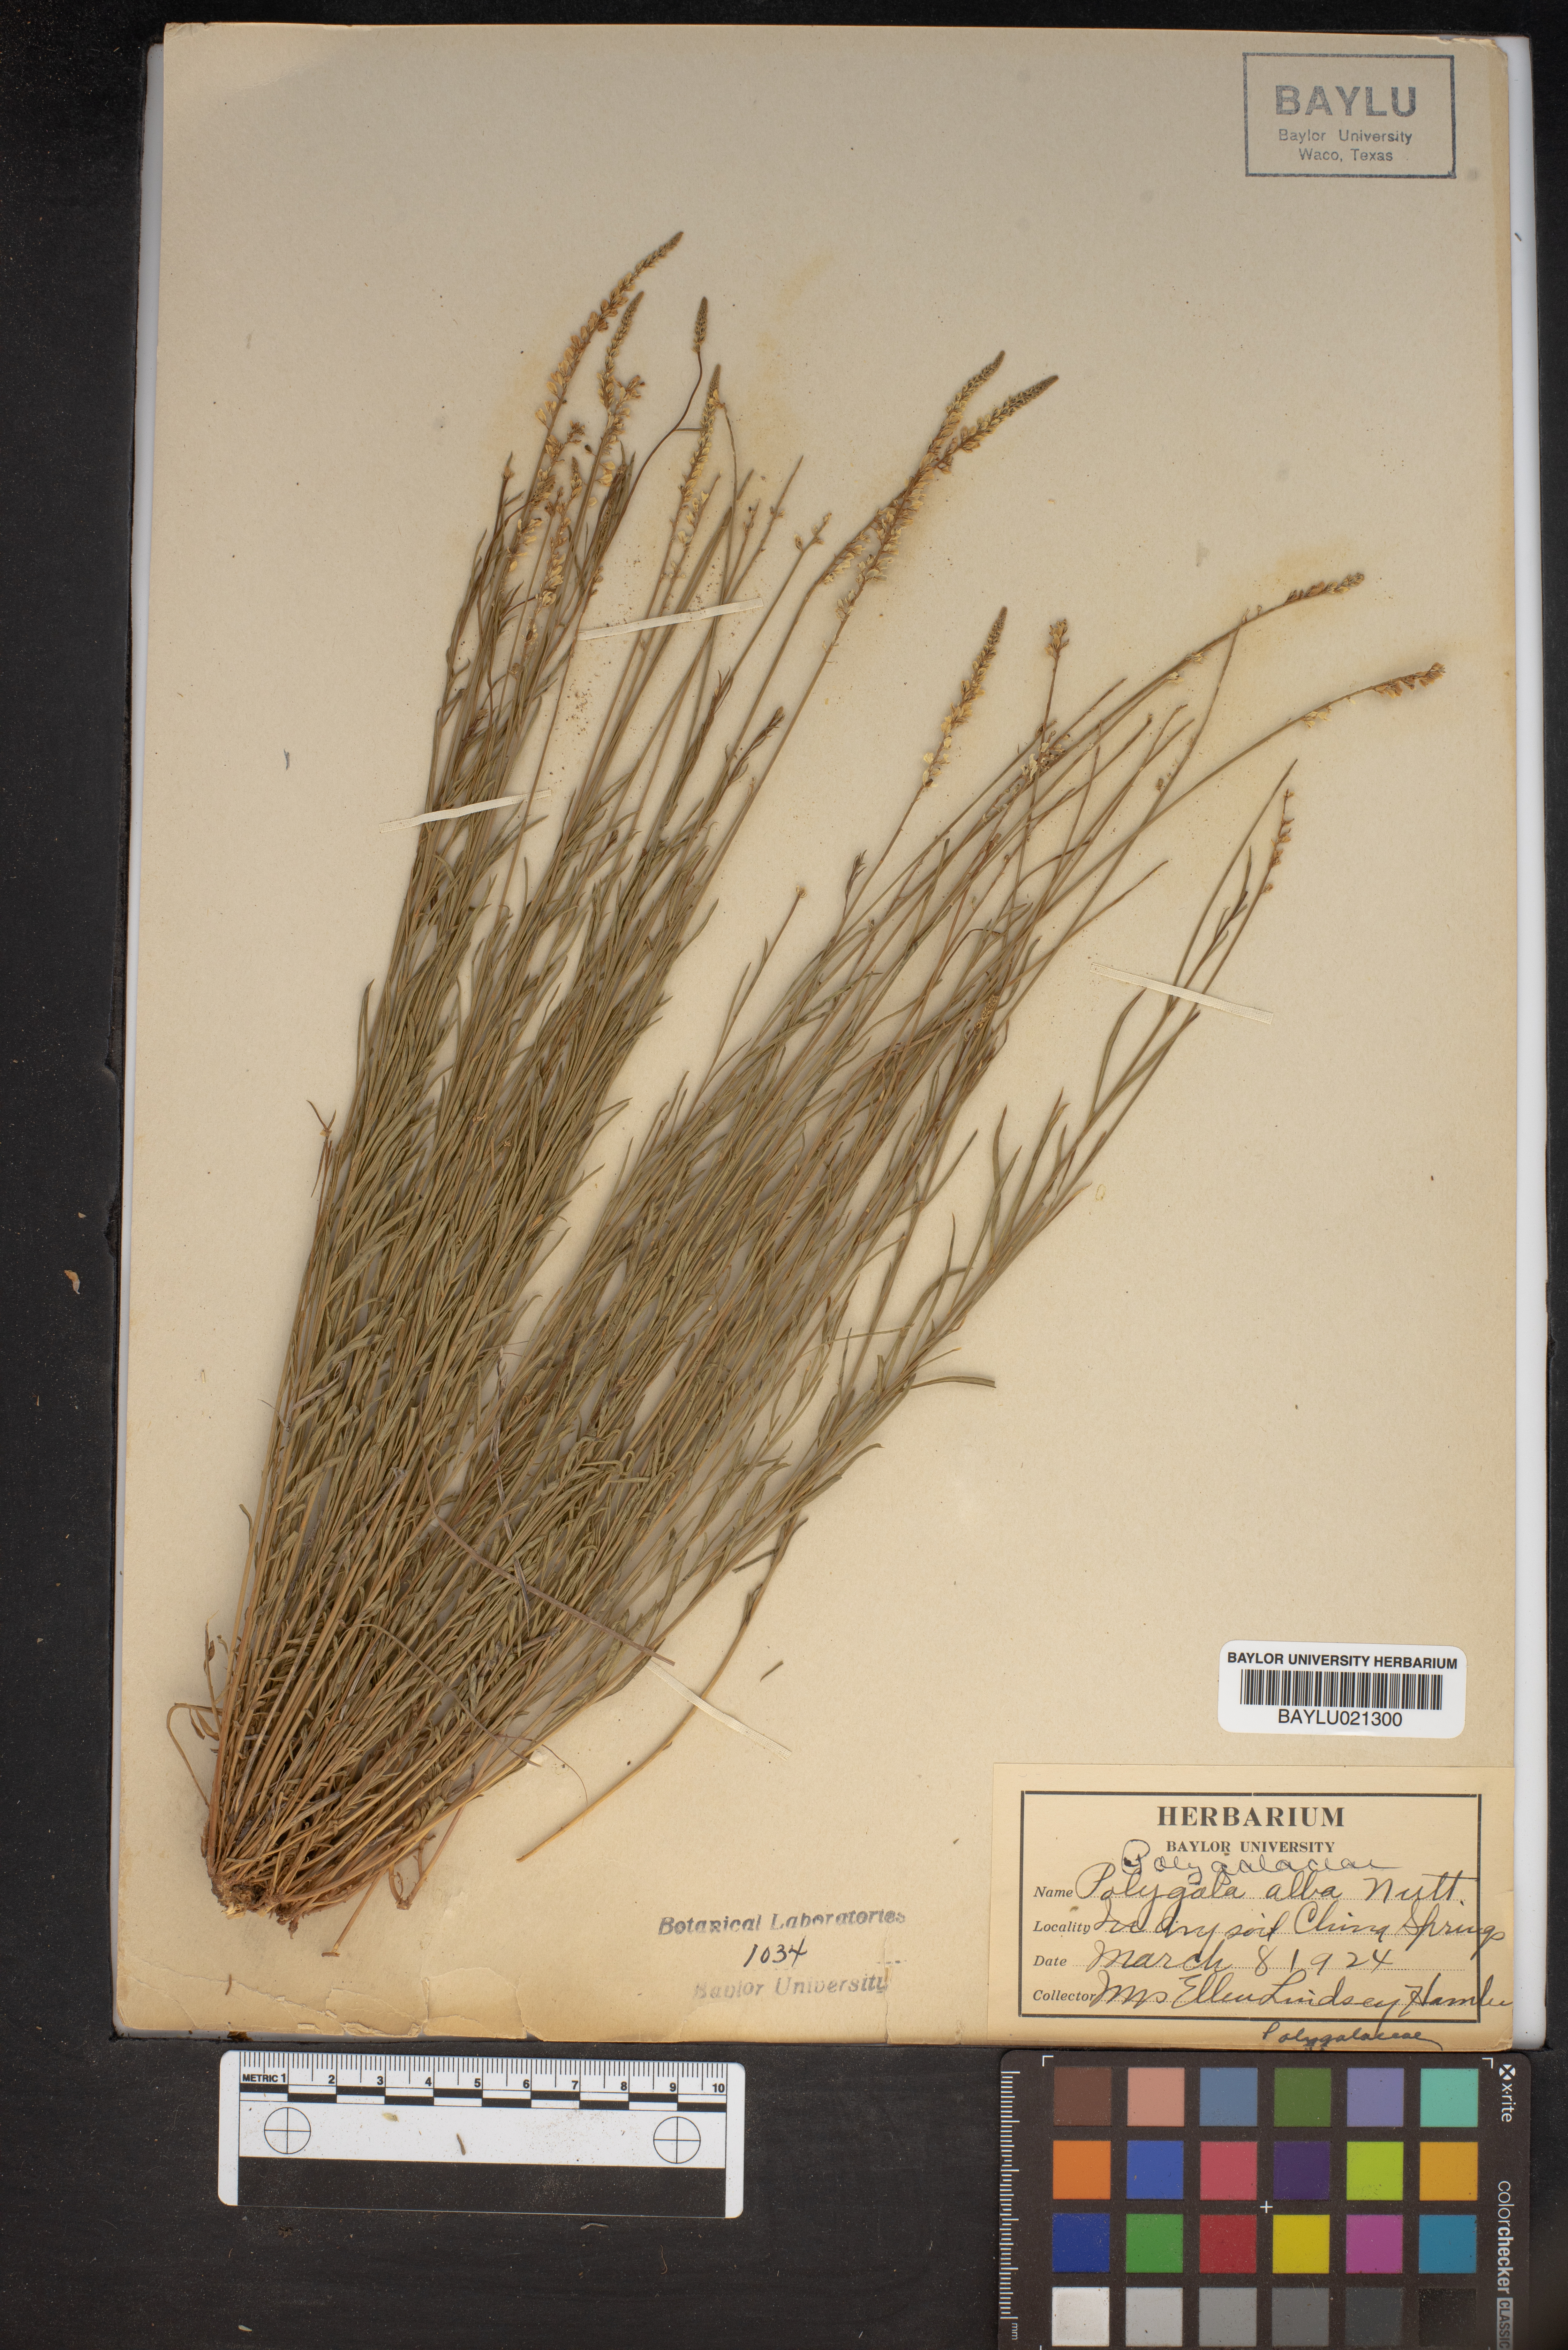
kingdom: Plantae
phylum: Tracheophyta
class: Magnoliopsida
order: Fabales
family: Polygalaceae
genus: Polygala
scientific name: Polygala alba
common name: White milkwort
